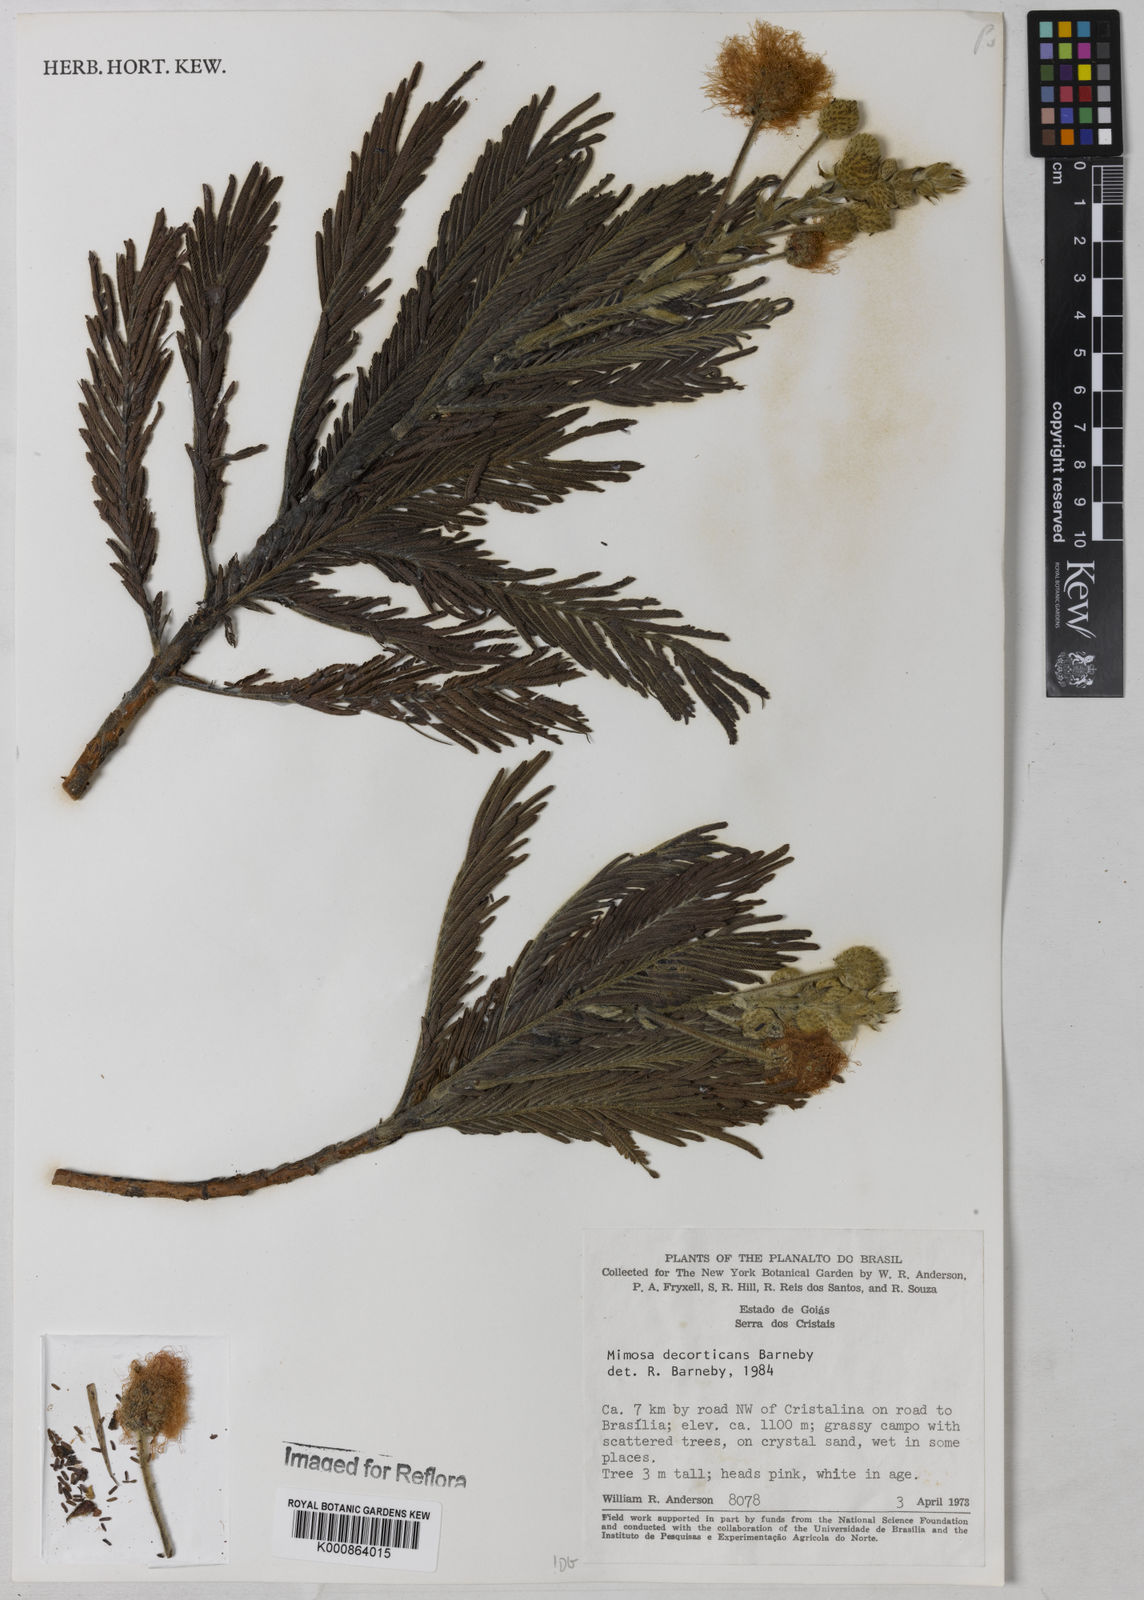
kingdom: Plantae
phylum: Tracheophyta
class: Magnoliopsida
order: Fabales
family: Fabaceae
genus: Mimosa
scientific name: Mimosa decorticans
